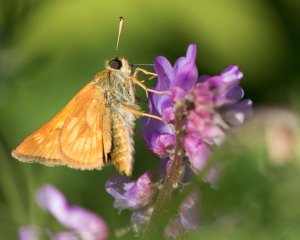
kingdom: Animalia
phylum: Arthropoda
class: Insecta
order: Lepidoptera
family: Hesperiidae
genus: Polites
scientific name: Polites
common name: Long Dash Skipper
